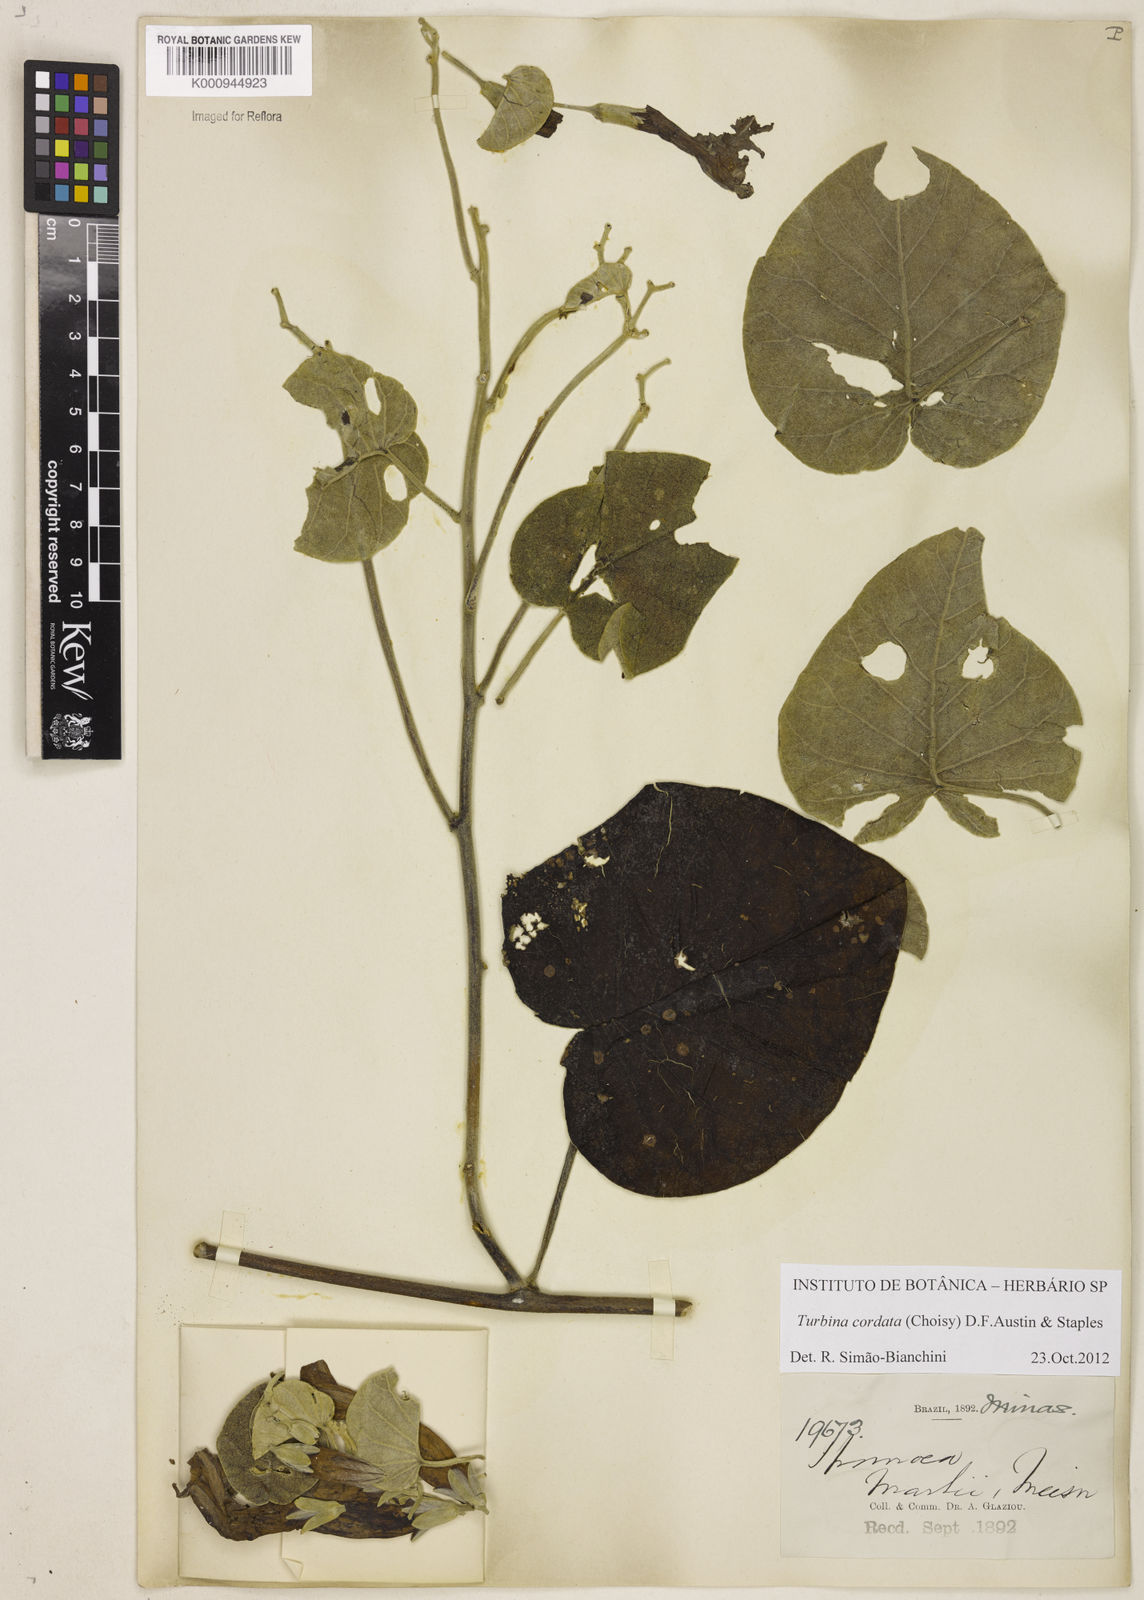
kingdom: Animalia
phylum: Mollusca
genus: Turbina
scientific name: Turbina
